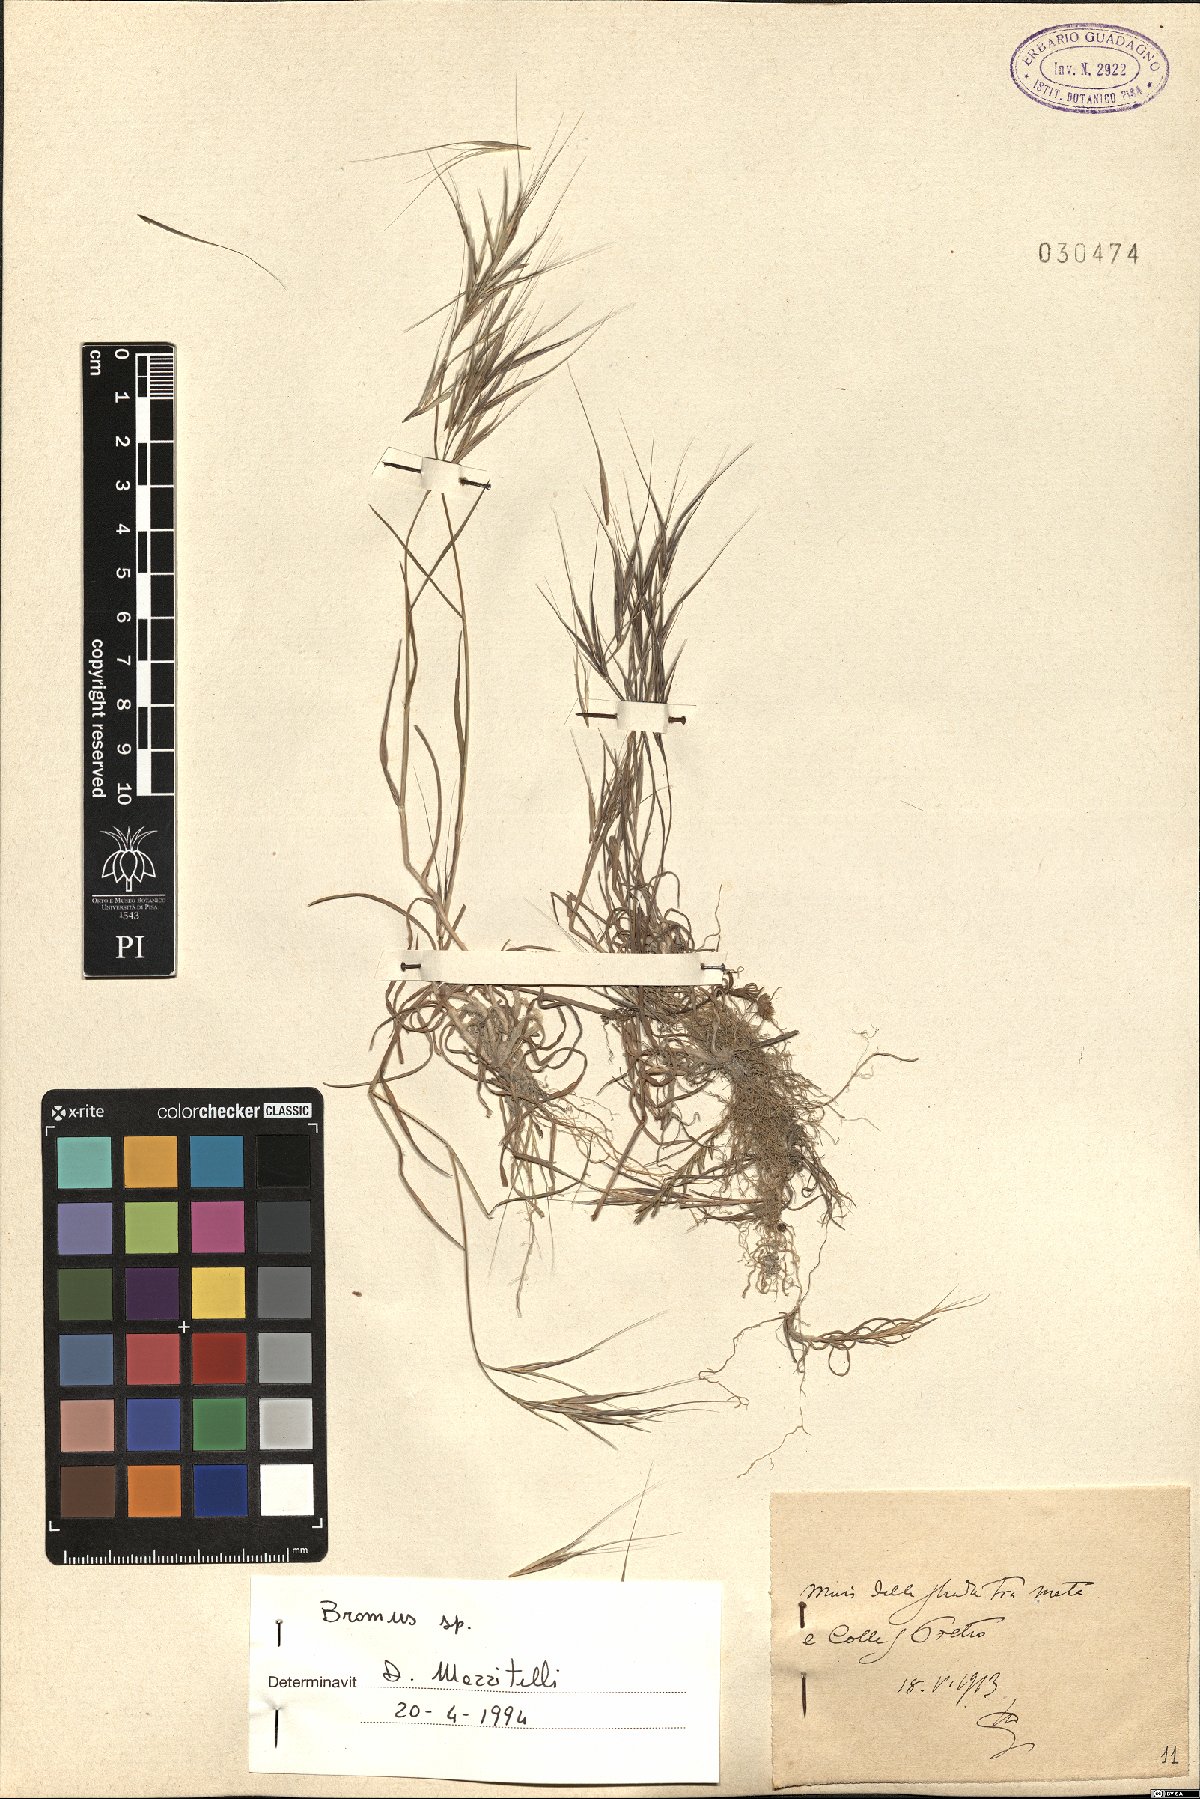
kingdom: Plantae
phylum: Tracheophyta
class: Liliopsida
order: Poales
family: Poaceae
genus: Bromus
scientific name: Bromus
